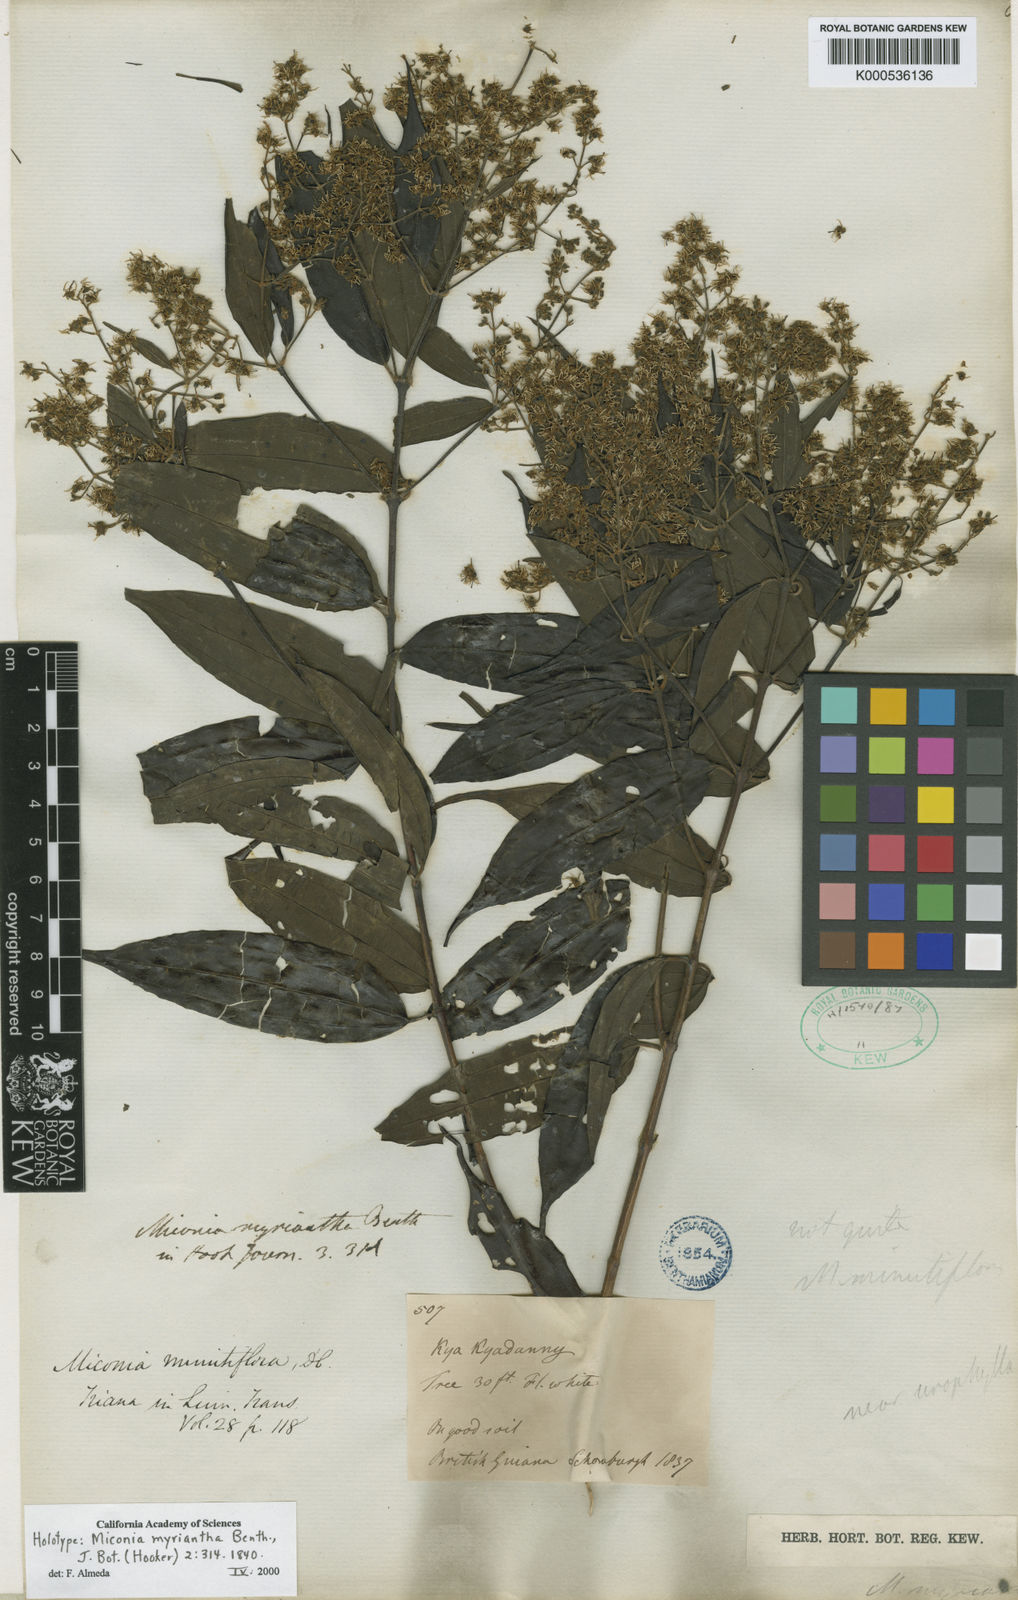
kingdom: Plantae
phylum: Tracheophyta
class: Magnoliopsida
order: Myrtales
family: Melastomataceae
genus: Miconia
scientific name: Miconia myriantha
